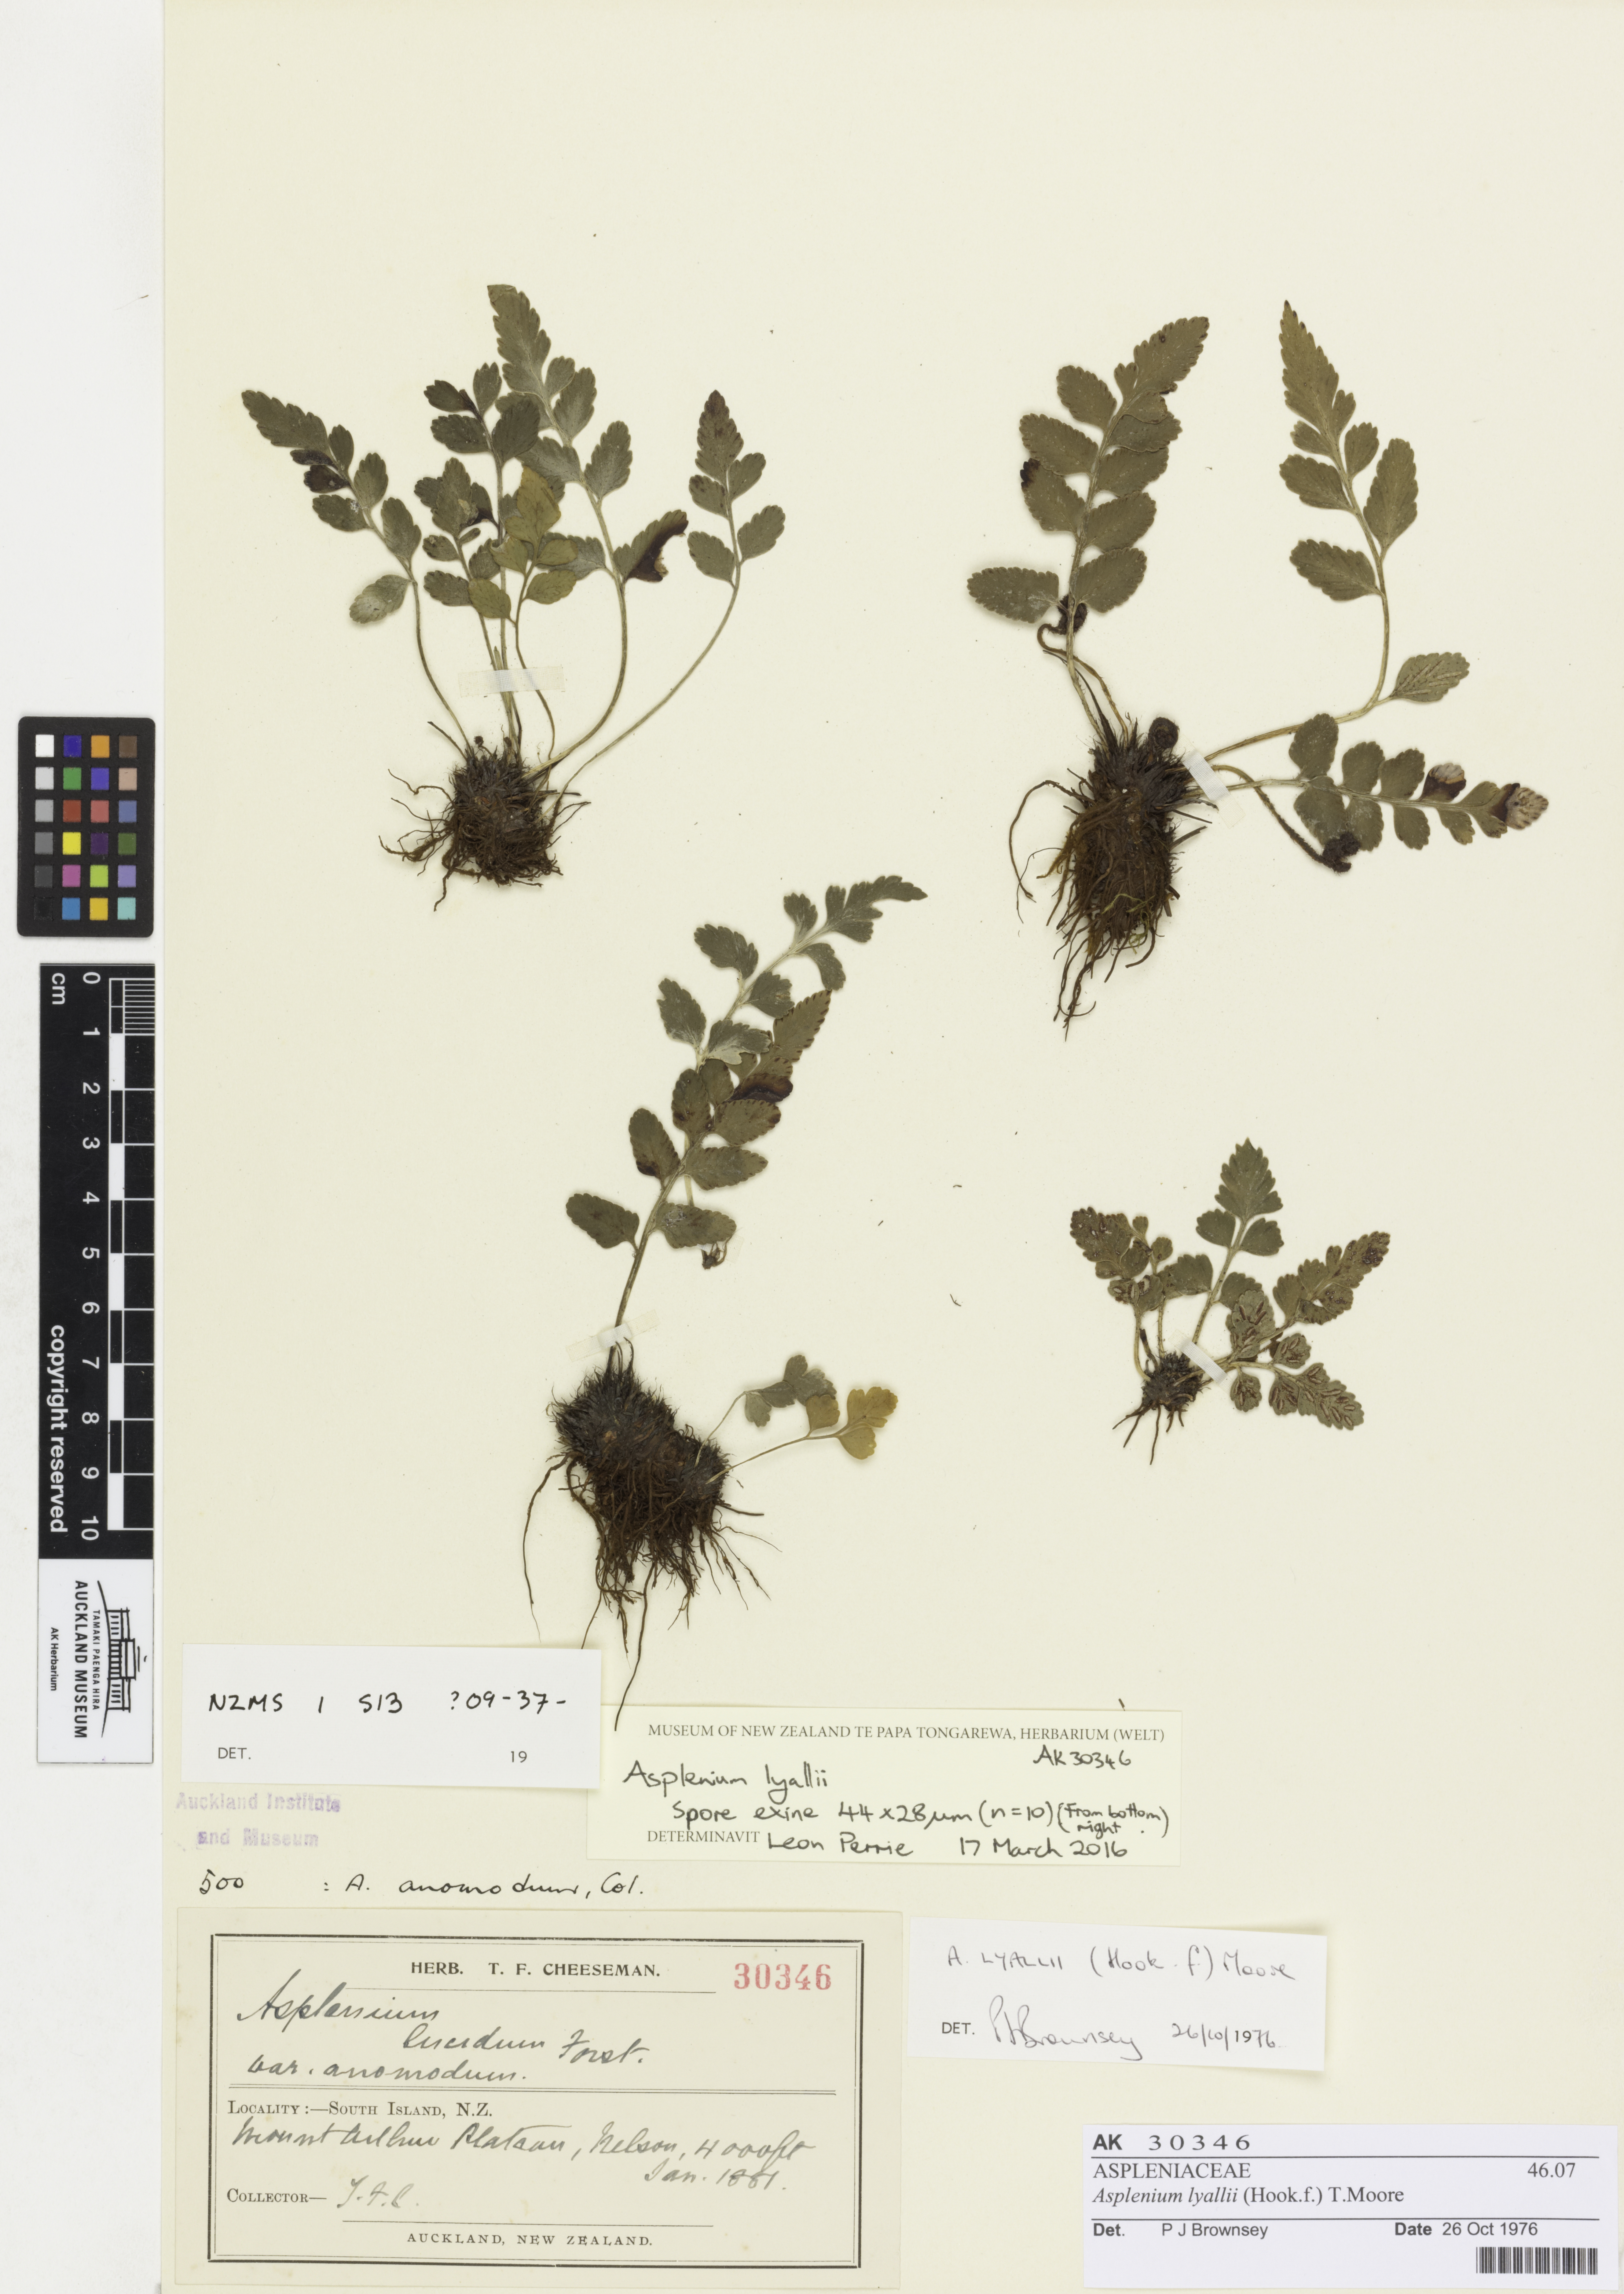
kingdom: Plantae
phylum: Tracheophyta
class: Polypodiopsida
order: Polypodiales
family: Aspleniaceae
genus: Asplenium
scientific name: Asplenium lyallii
